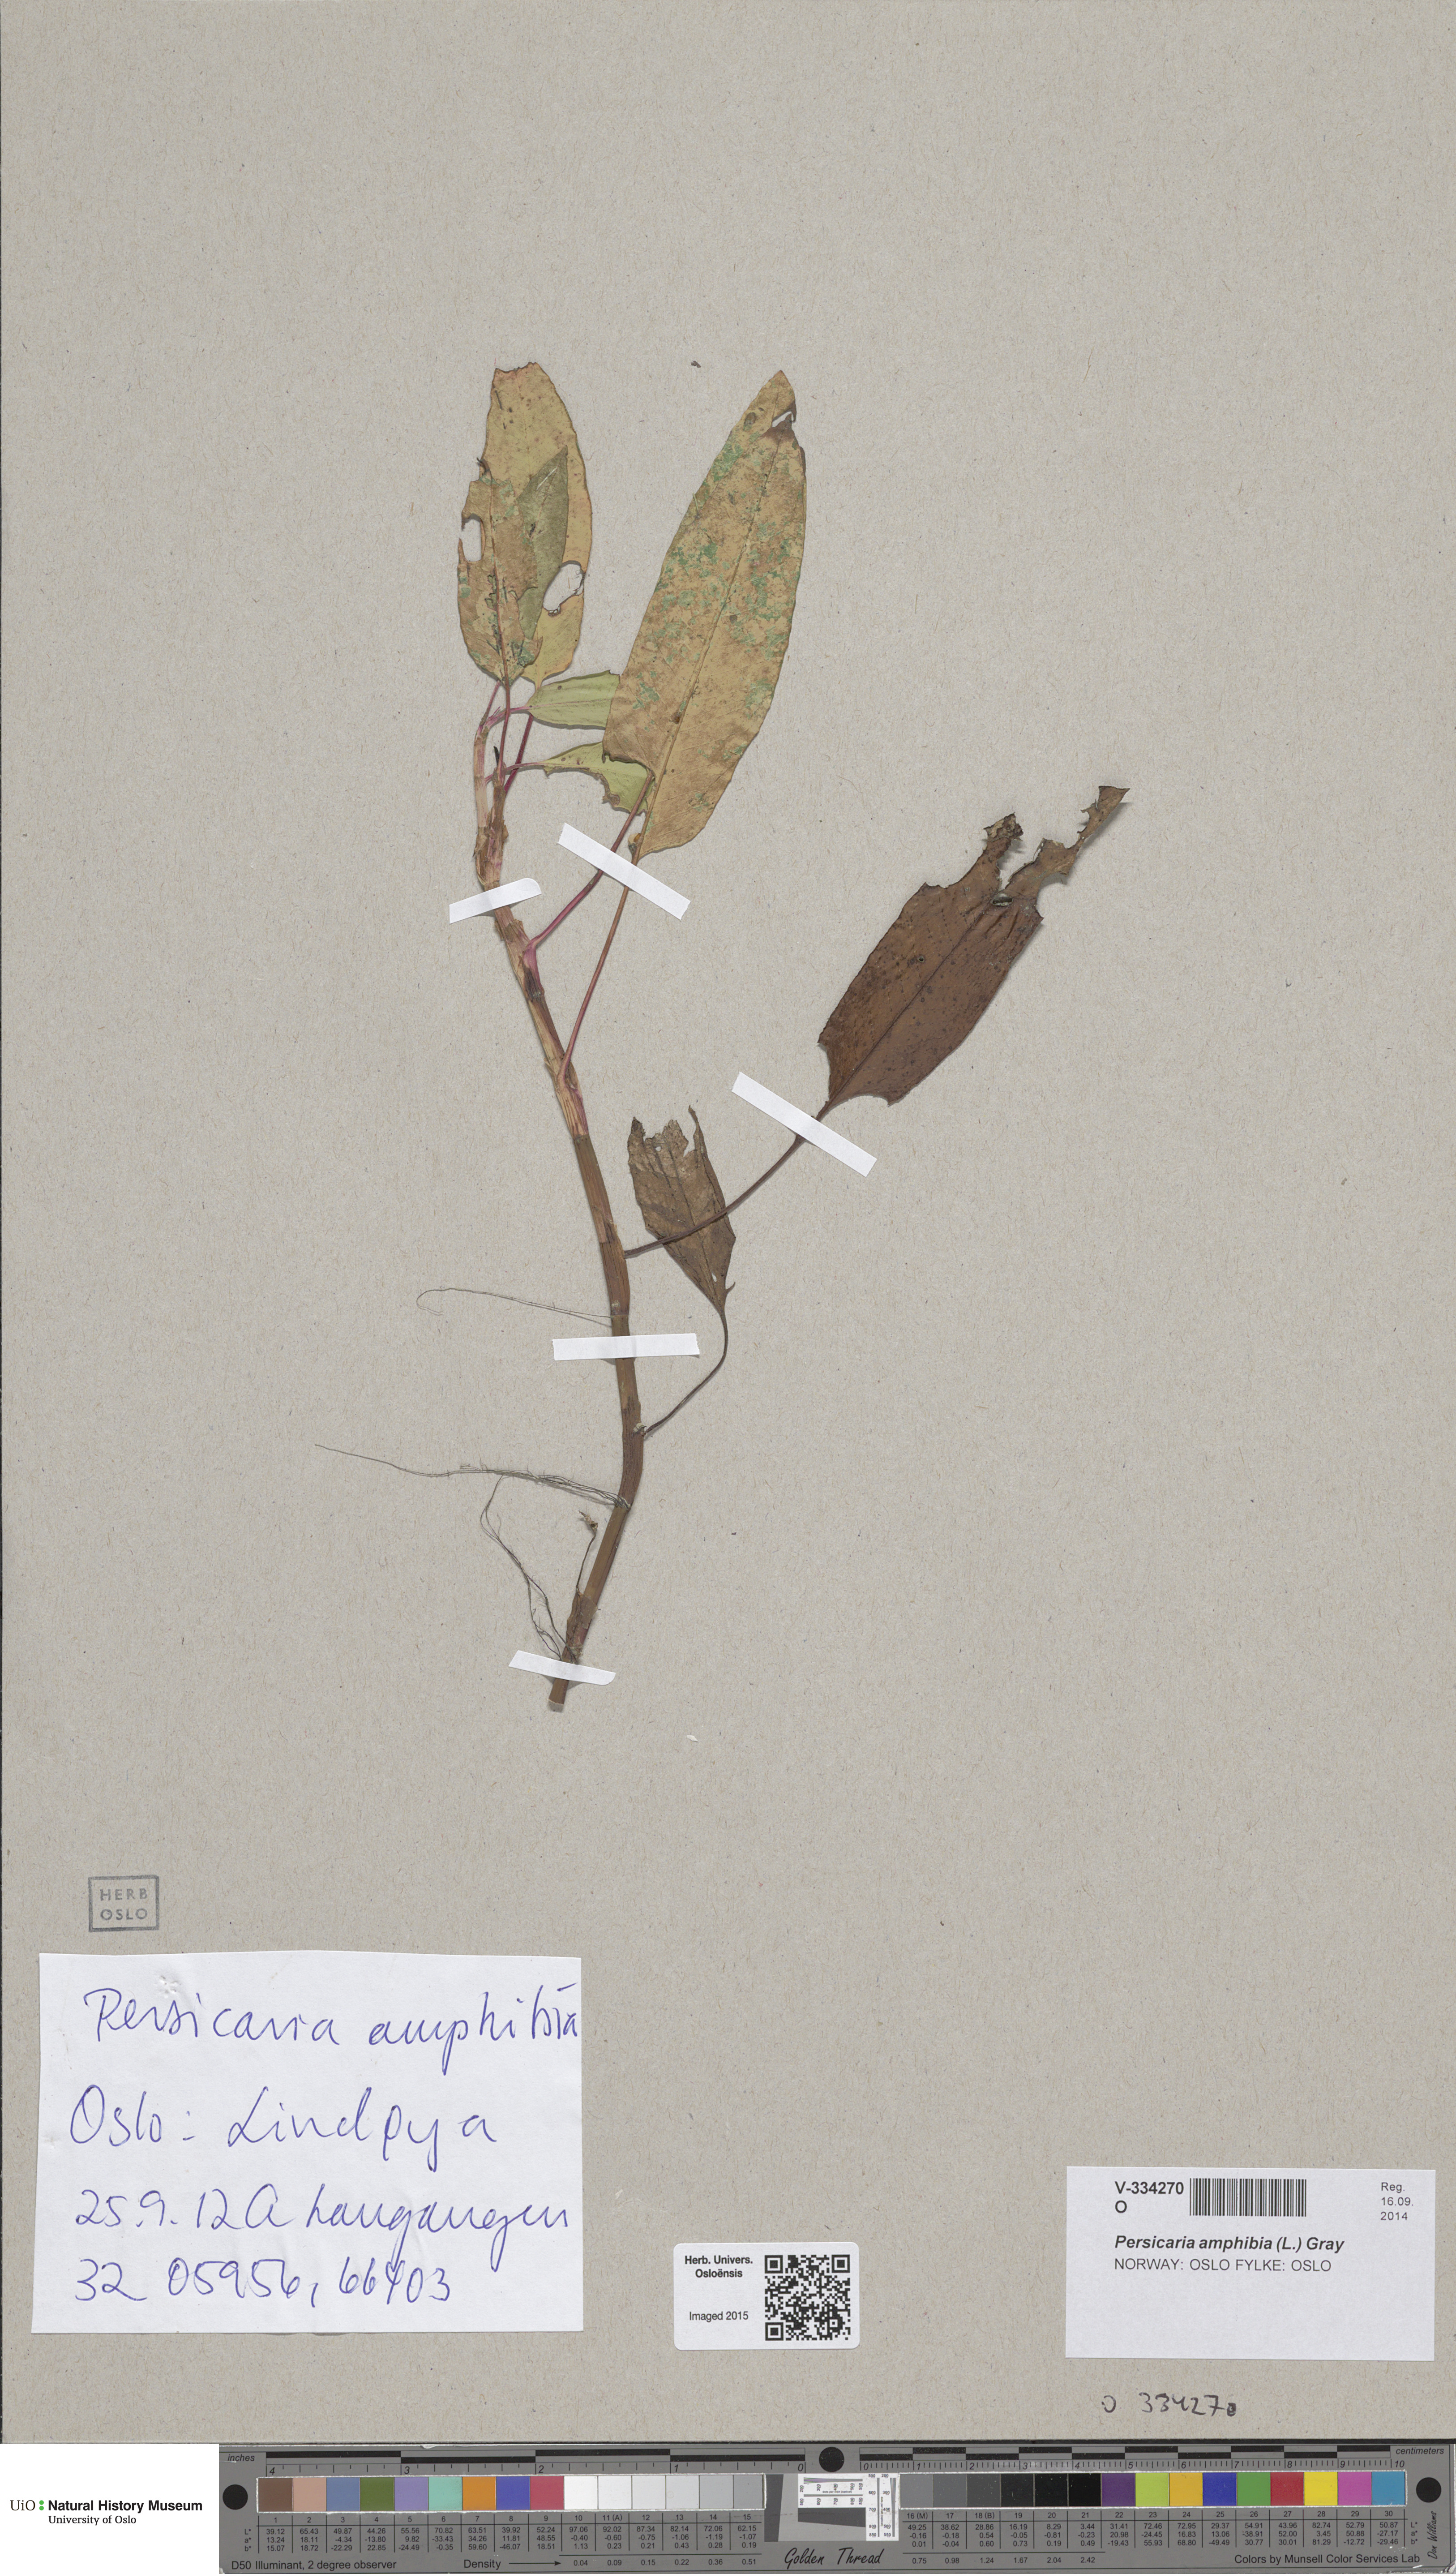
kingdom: Plantae
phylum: Tracheophyta
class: Magnoliopsida
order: Caryophyllales
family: Polygonaceae
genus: Persicaria
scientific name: Persicaria amphibia
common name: Amphibious bistort
